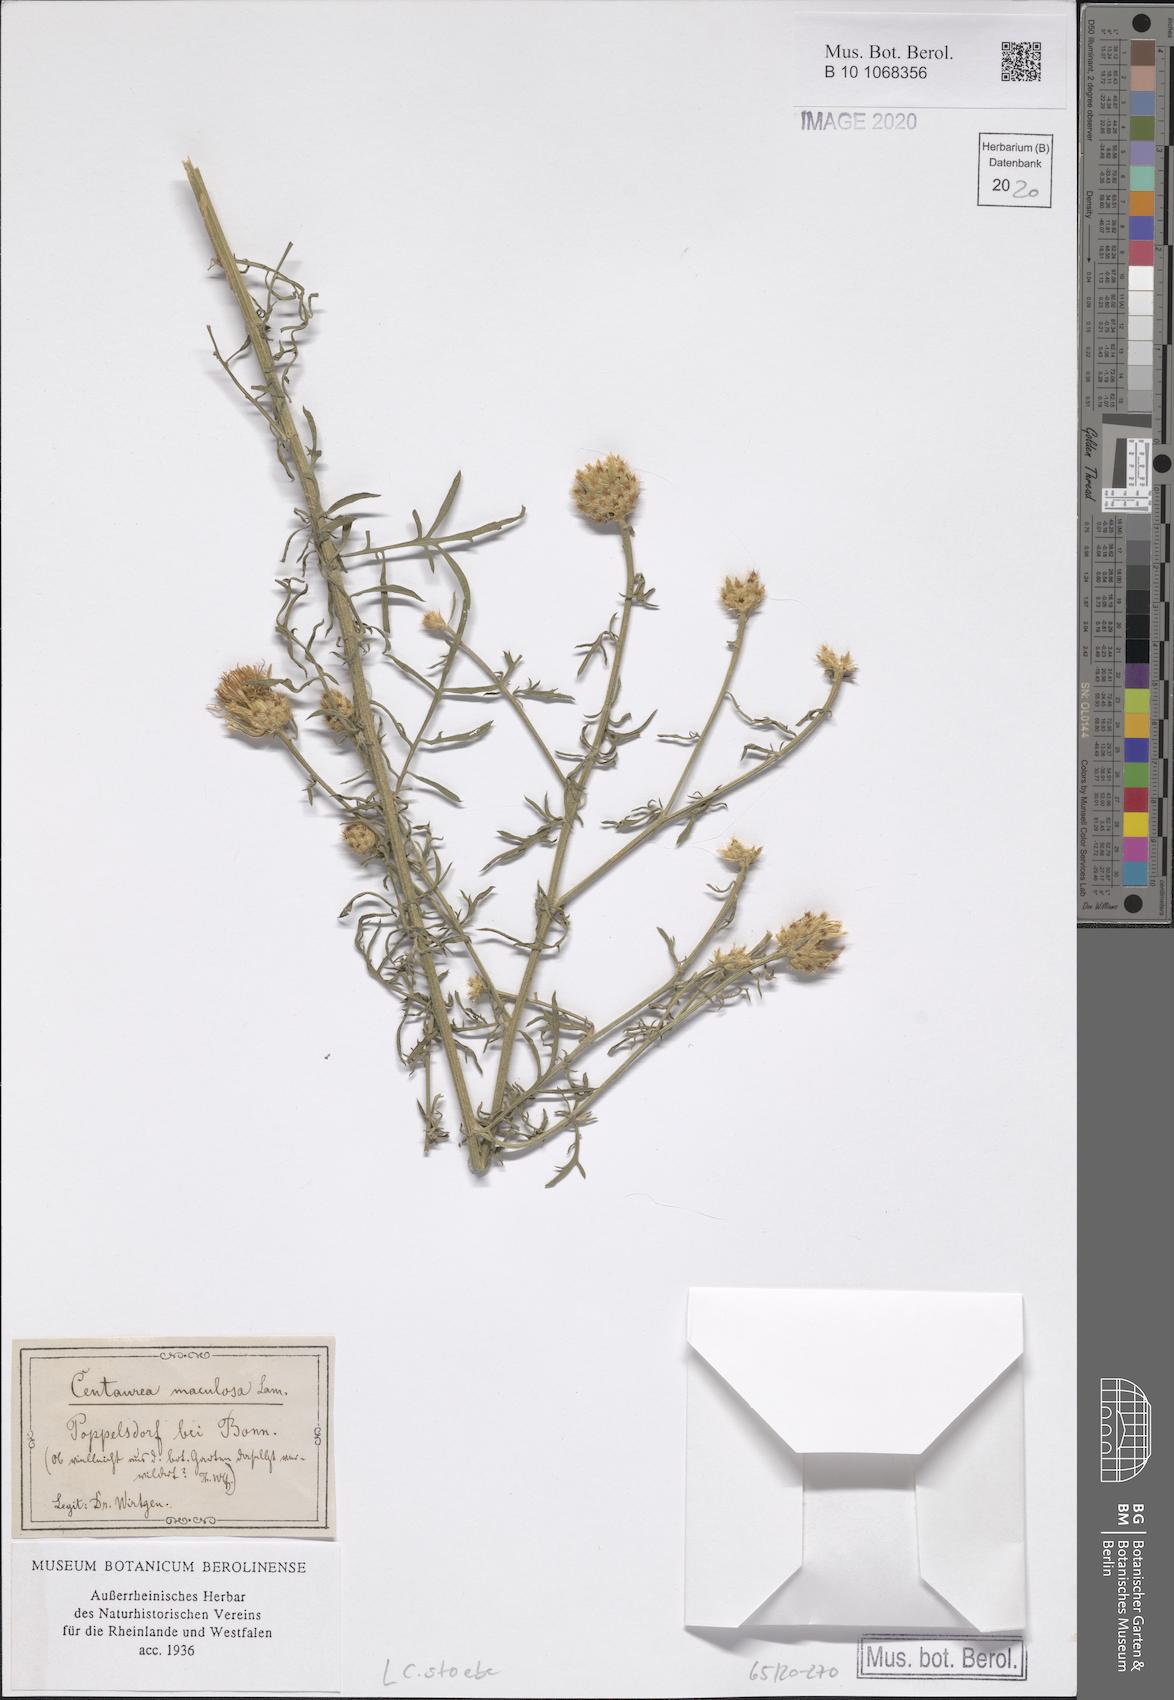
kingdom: Plantae
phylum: Tracheophyta
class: Magnoliopsida
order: Asterales
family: Asteraceae
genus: Centaurea
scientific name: Centaurea stoebe
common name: Spotted knapweed
